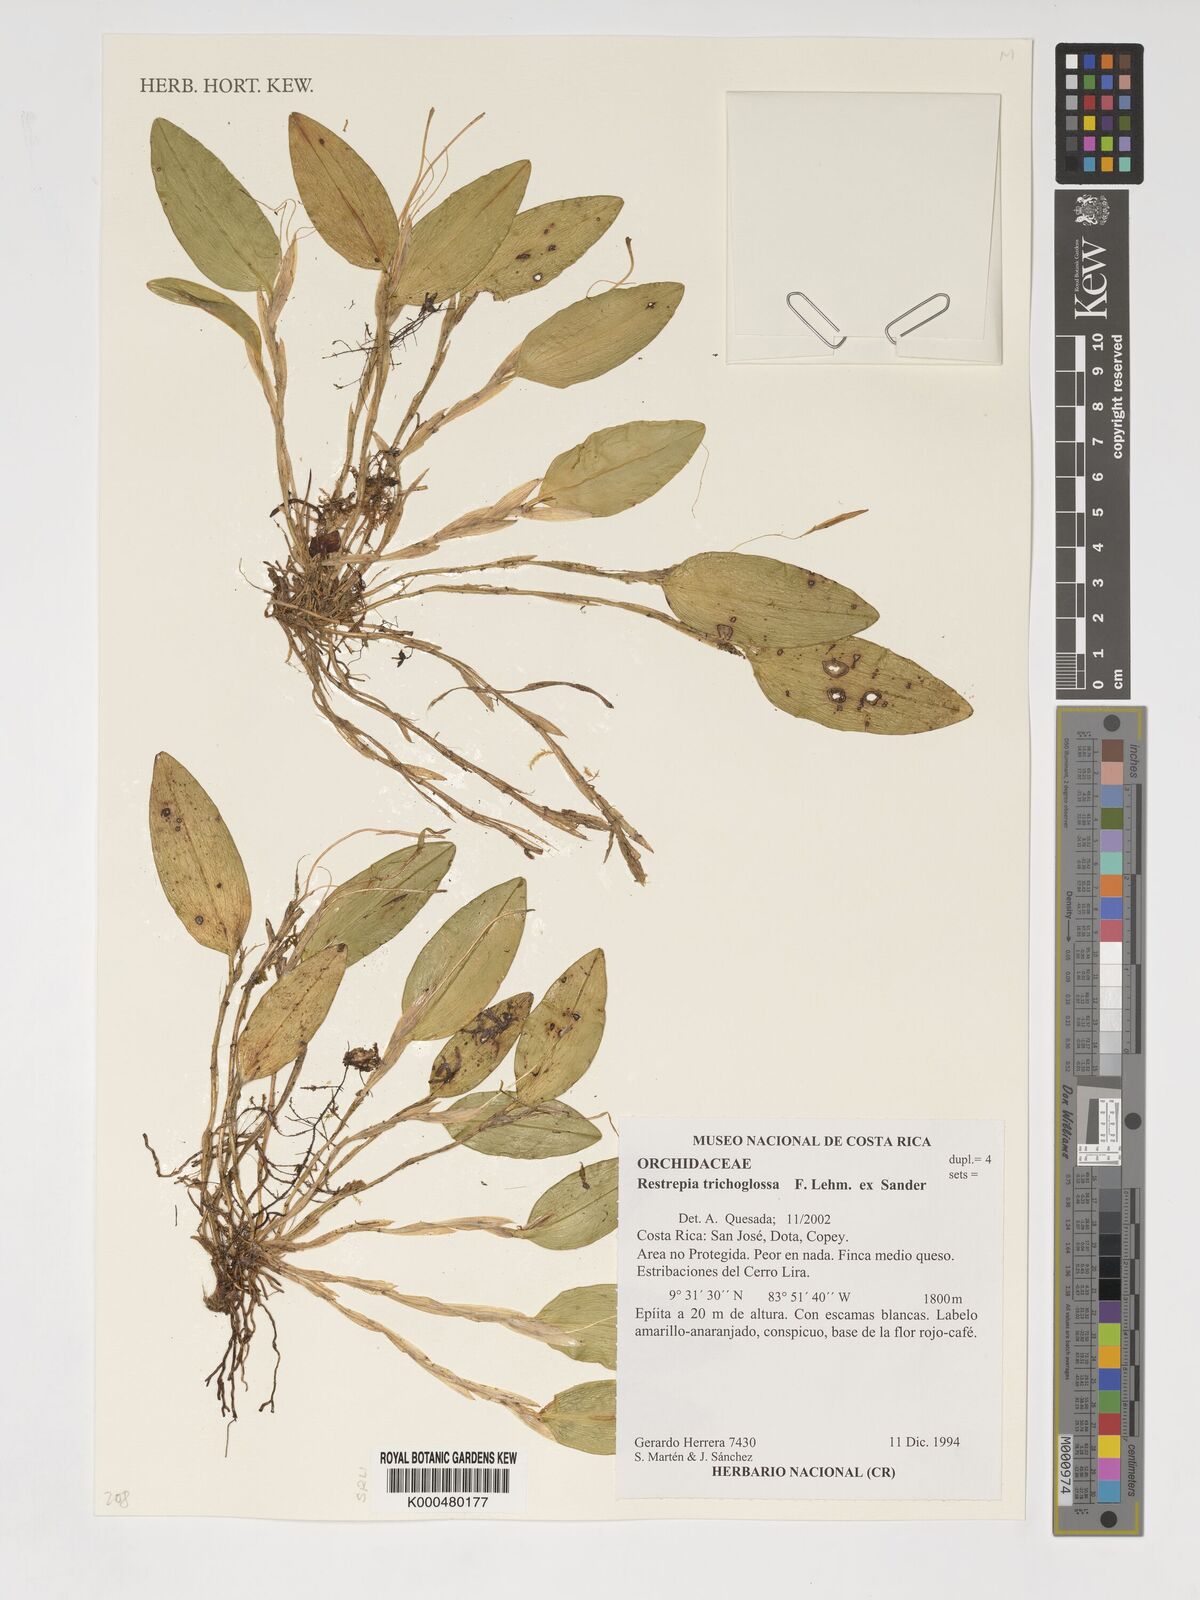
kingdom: Plantae
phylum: Tracheophyta
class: Liliopsida
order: Asparagales
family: Orchidaceae
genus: Pterostylis
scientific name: Pterostylis
